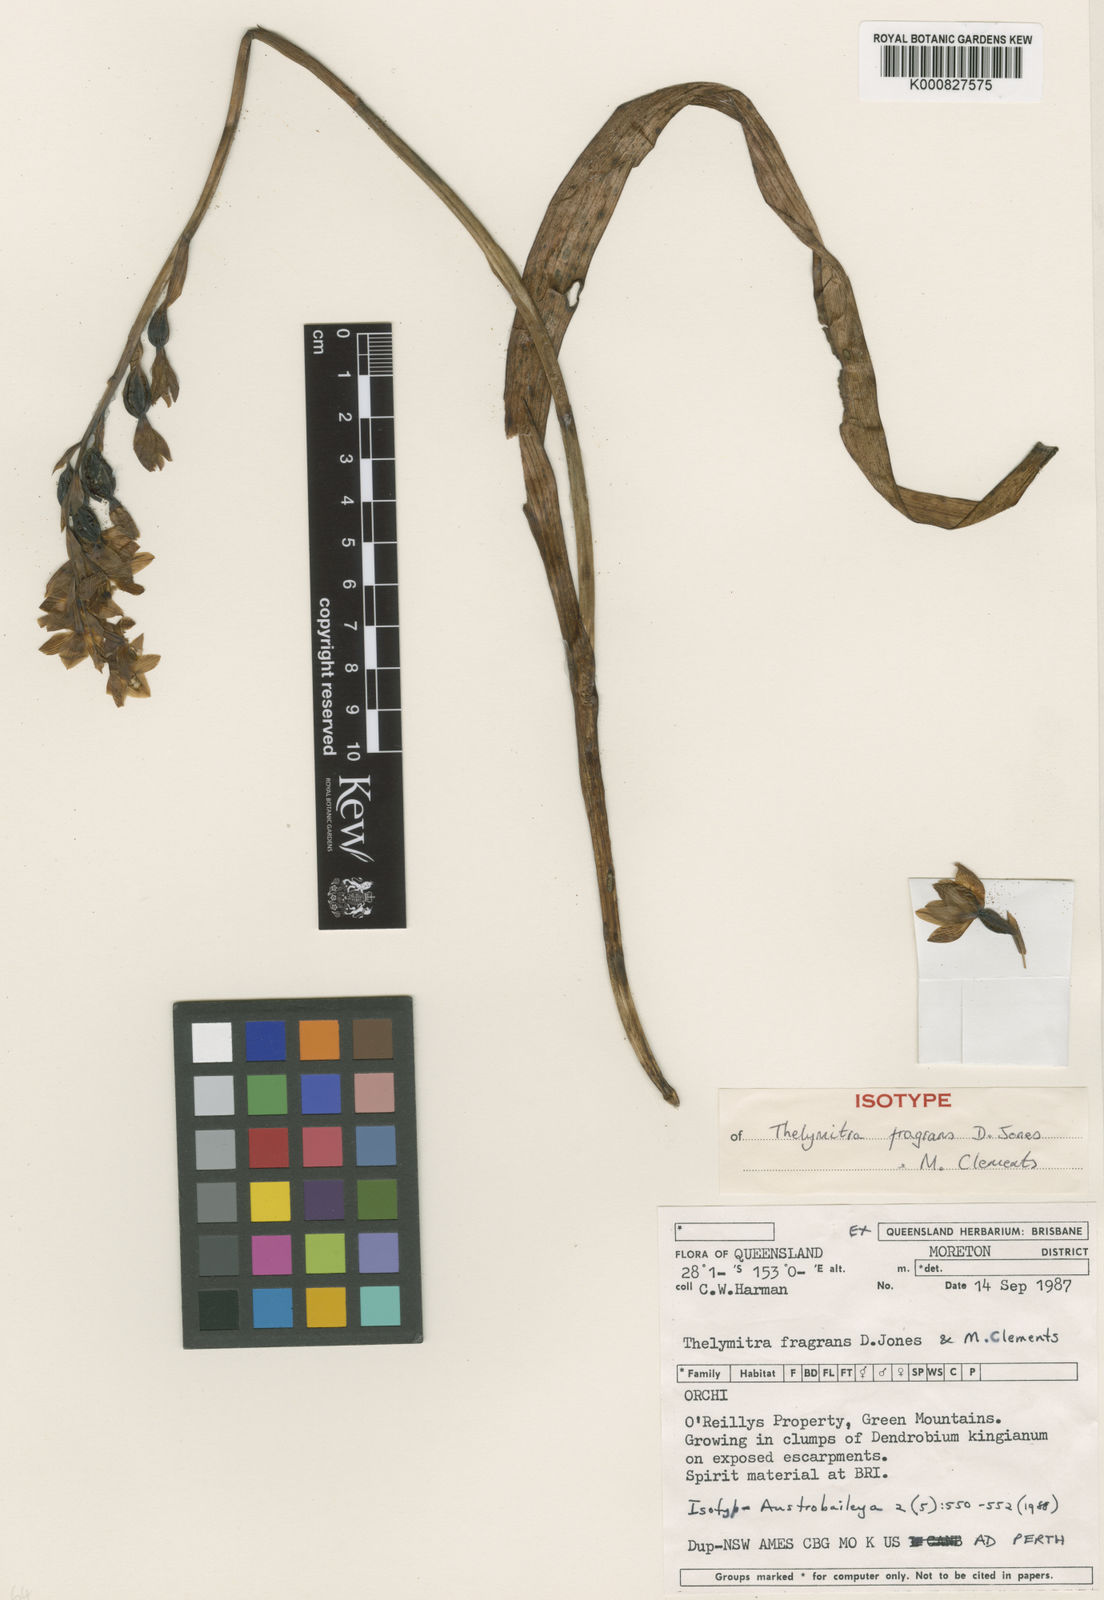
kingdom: Plantae
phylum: Tracheophyta
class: Liliopsida
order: Asparagales
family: Orchidaceae
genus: Thelymitra
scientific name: Thelymitra fuscolutea
